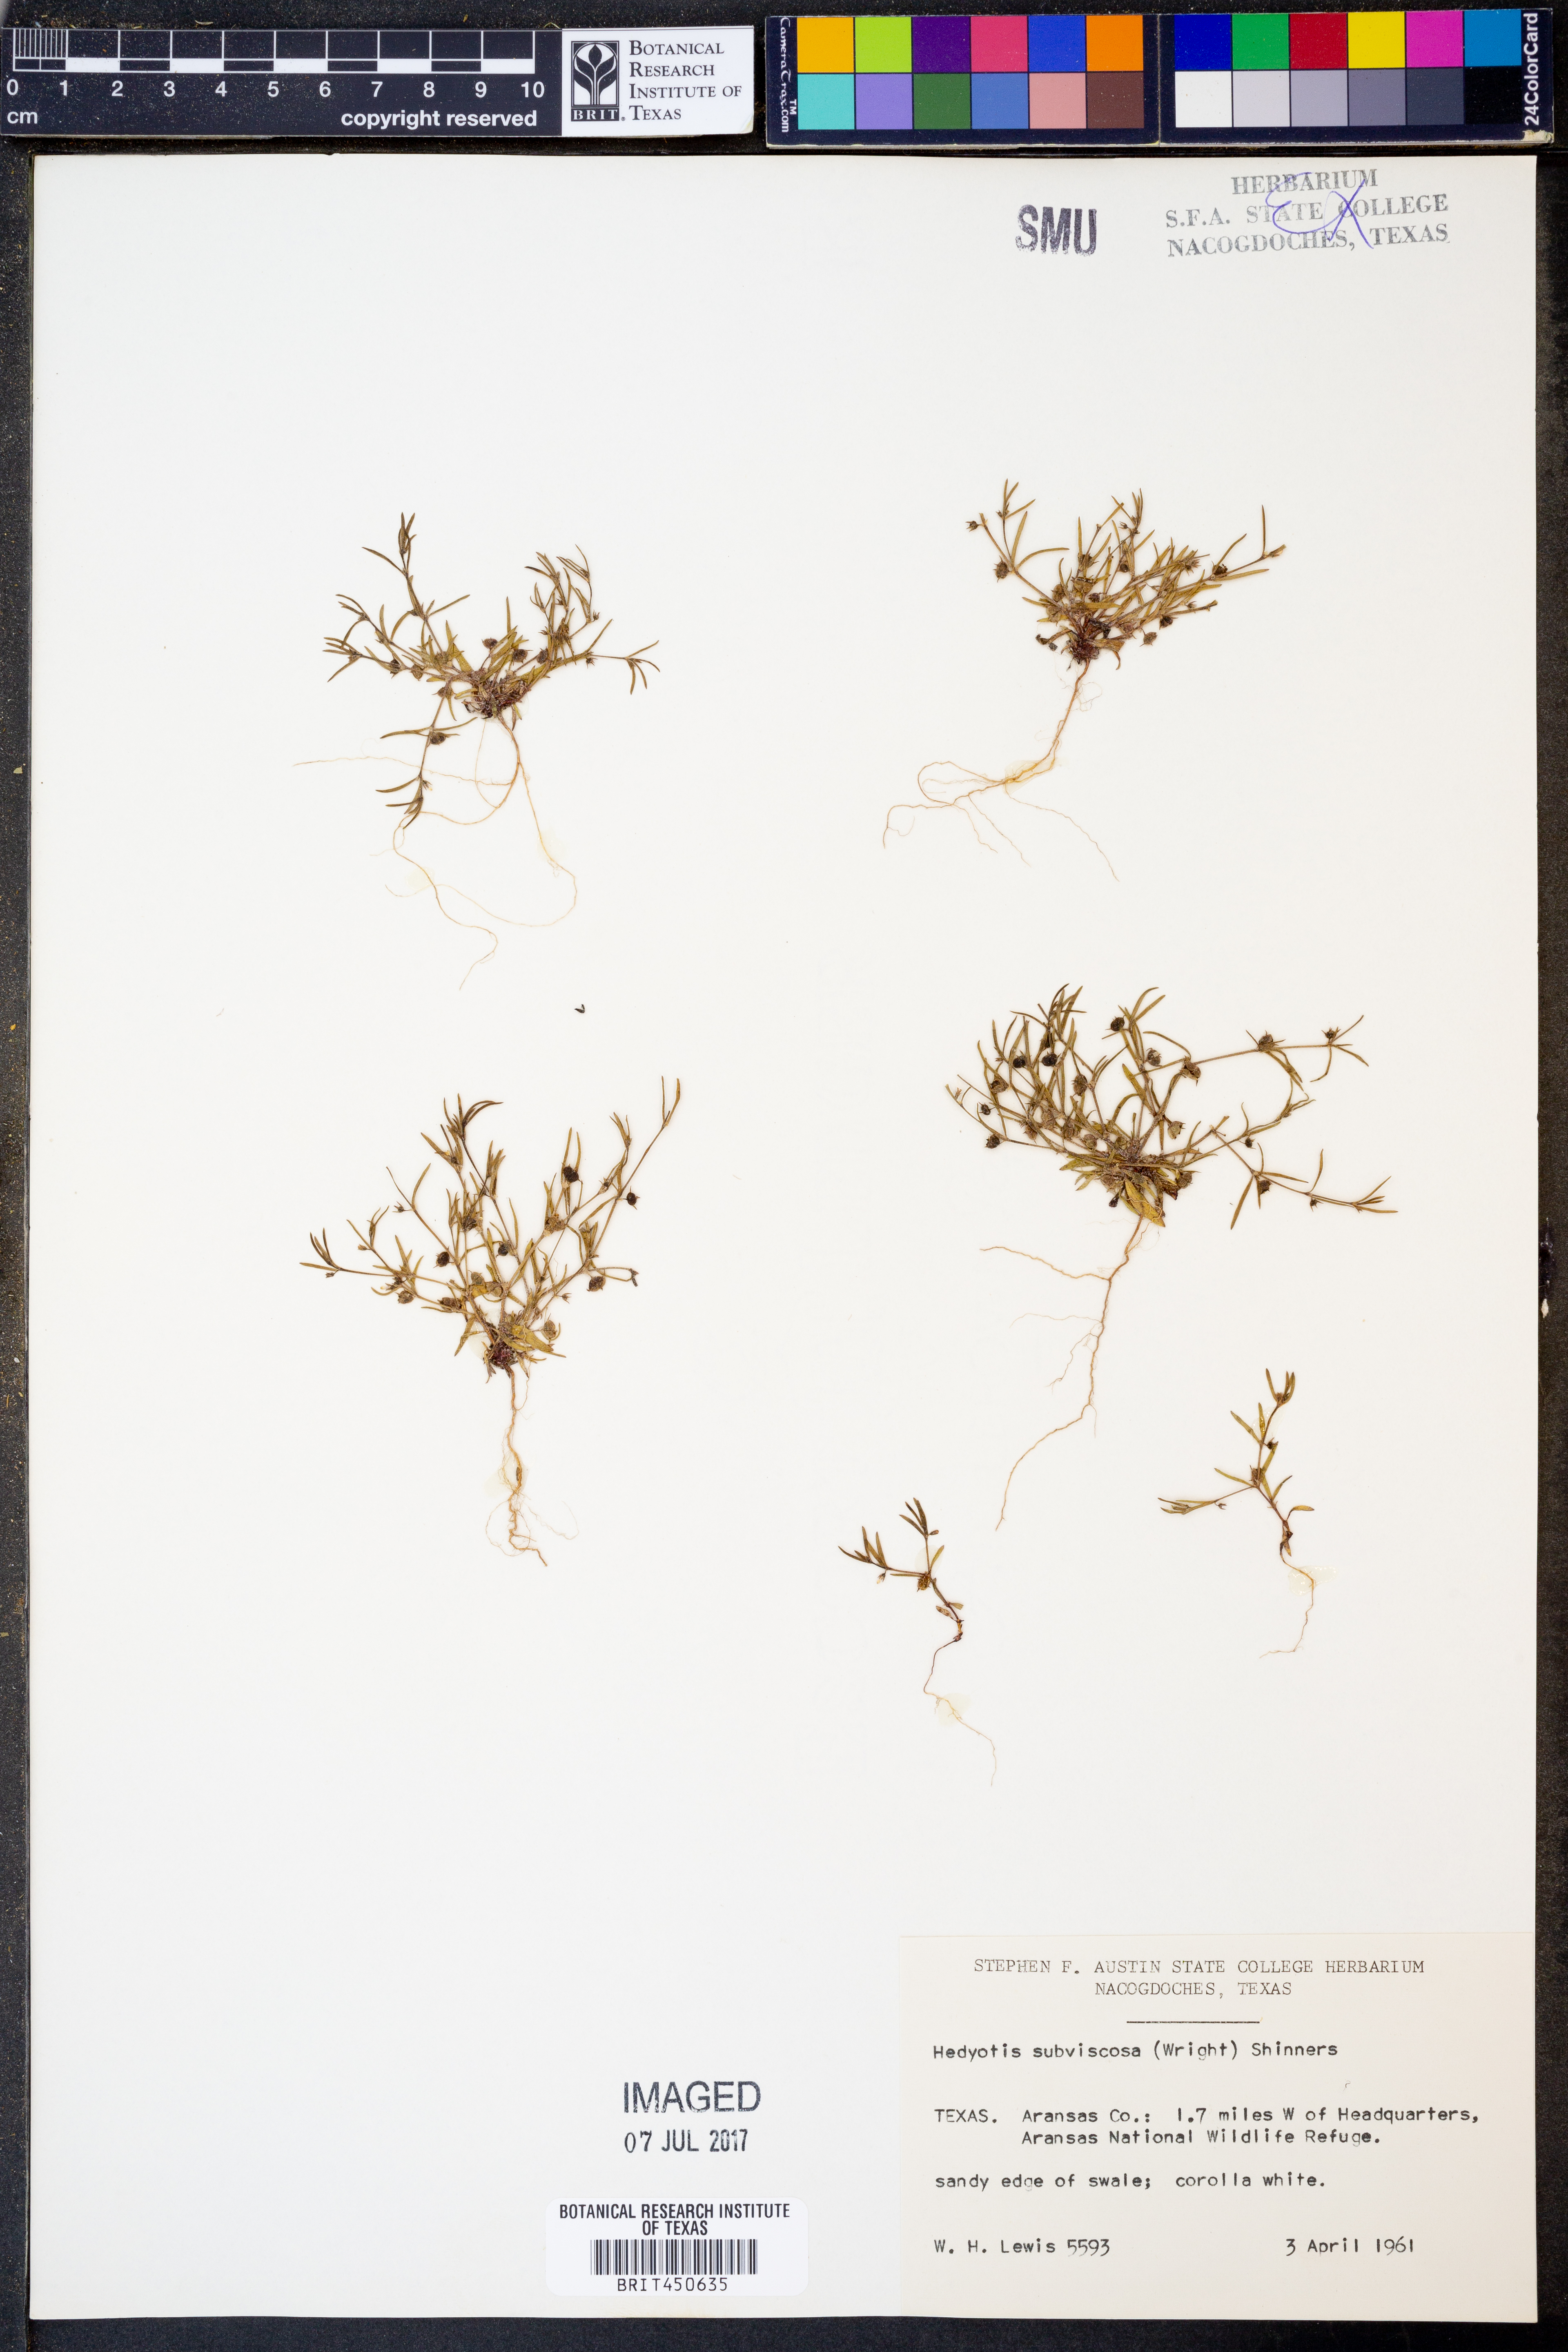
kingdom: Plantae
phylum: Tracheophyta
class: Magnoliopsida
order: Gentianales
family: Rubiaceae
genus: Houstonia
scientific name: Houstonia subviscosa
